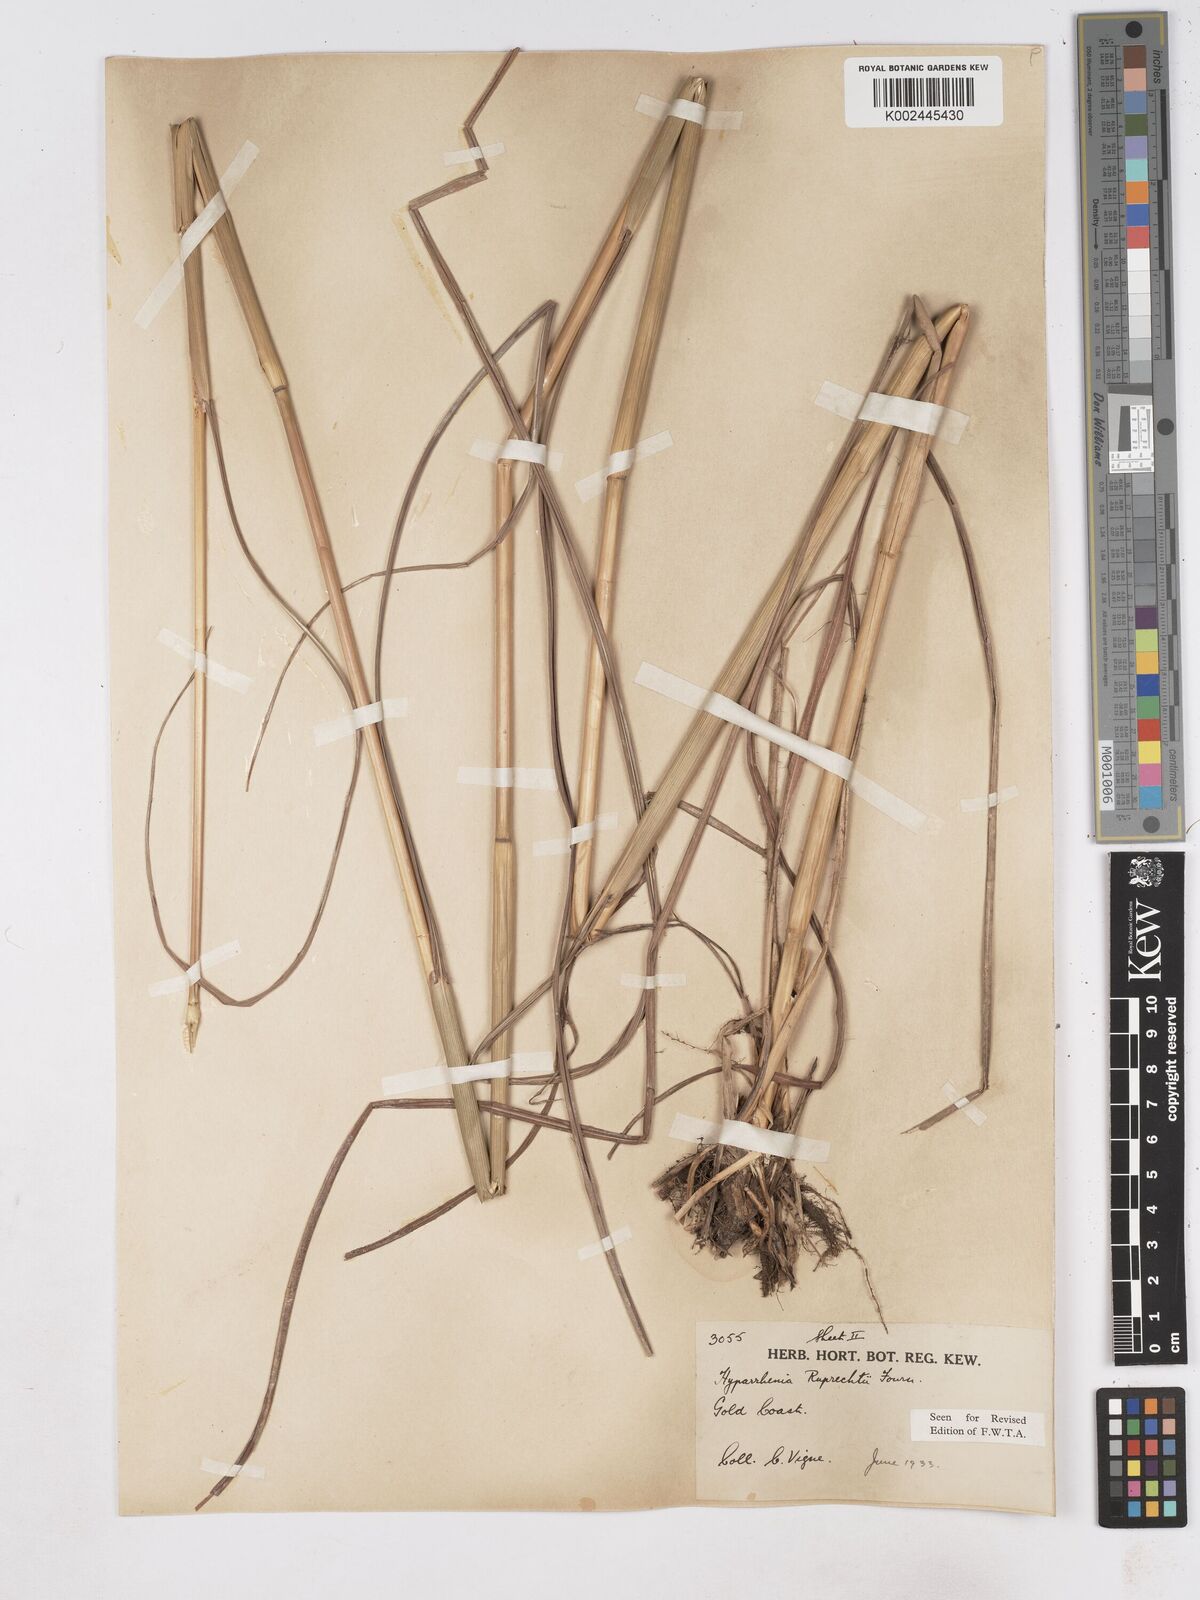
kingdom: Plantae
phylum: Tracheophyta
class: Liliopsida
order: Poales
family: Poaceae
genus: Hyperthelia
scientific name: Hyperthelia dissoluta
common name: Yellow thatching grass
